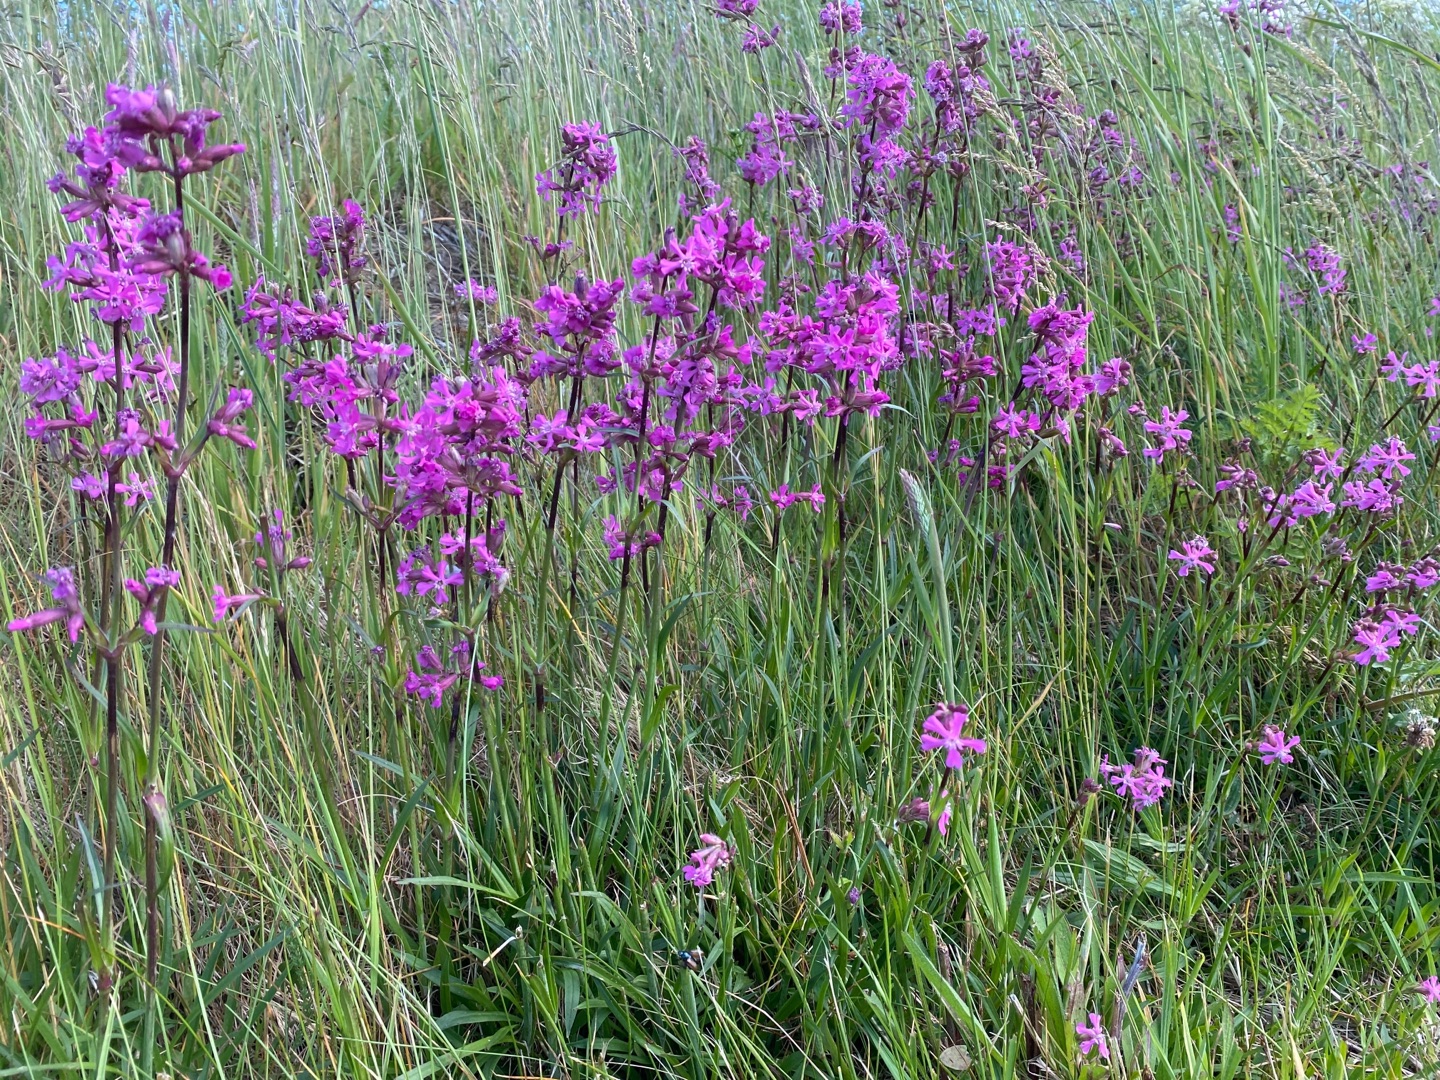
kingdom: Plantae
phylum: Tracheophyta
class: Magnoliopsida
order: Caryophyllales
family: Caryophyllaceae
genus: Viscaria
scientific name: Viscaria vulgaris
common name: Tjærenellike
